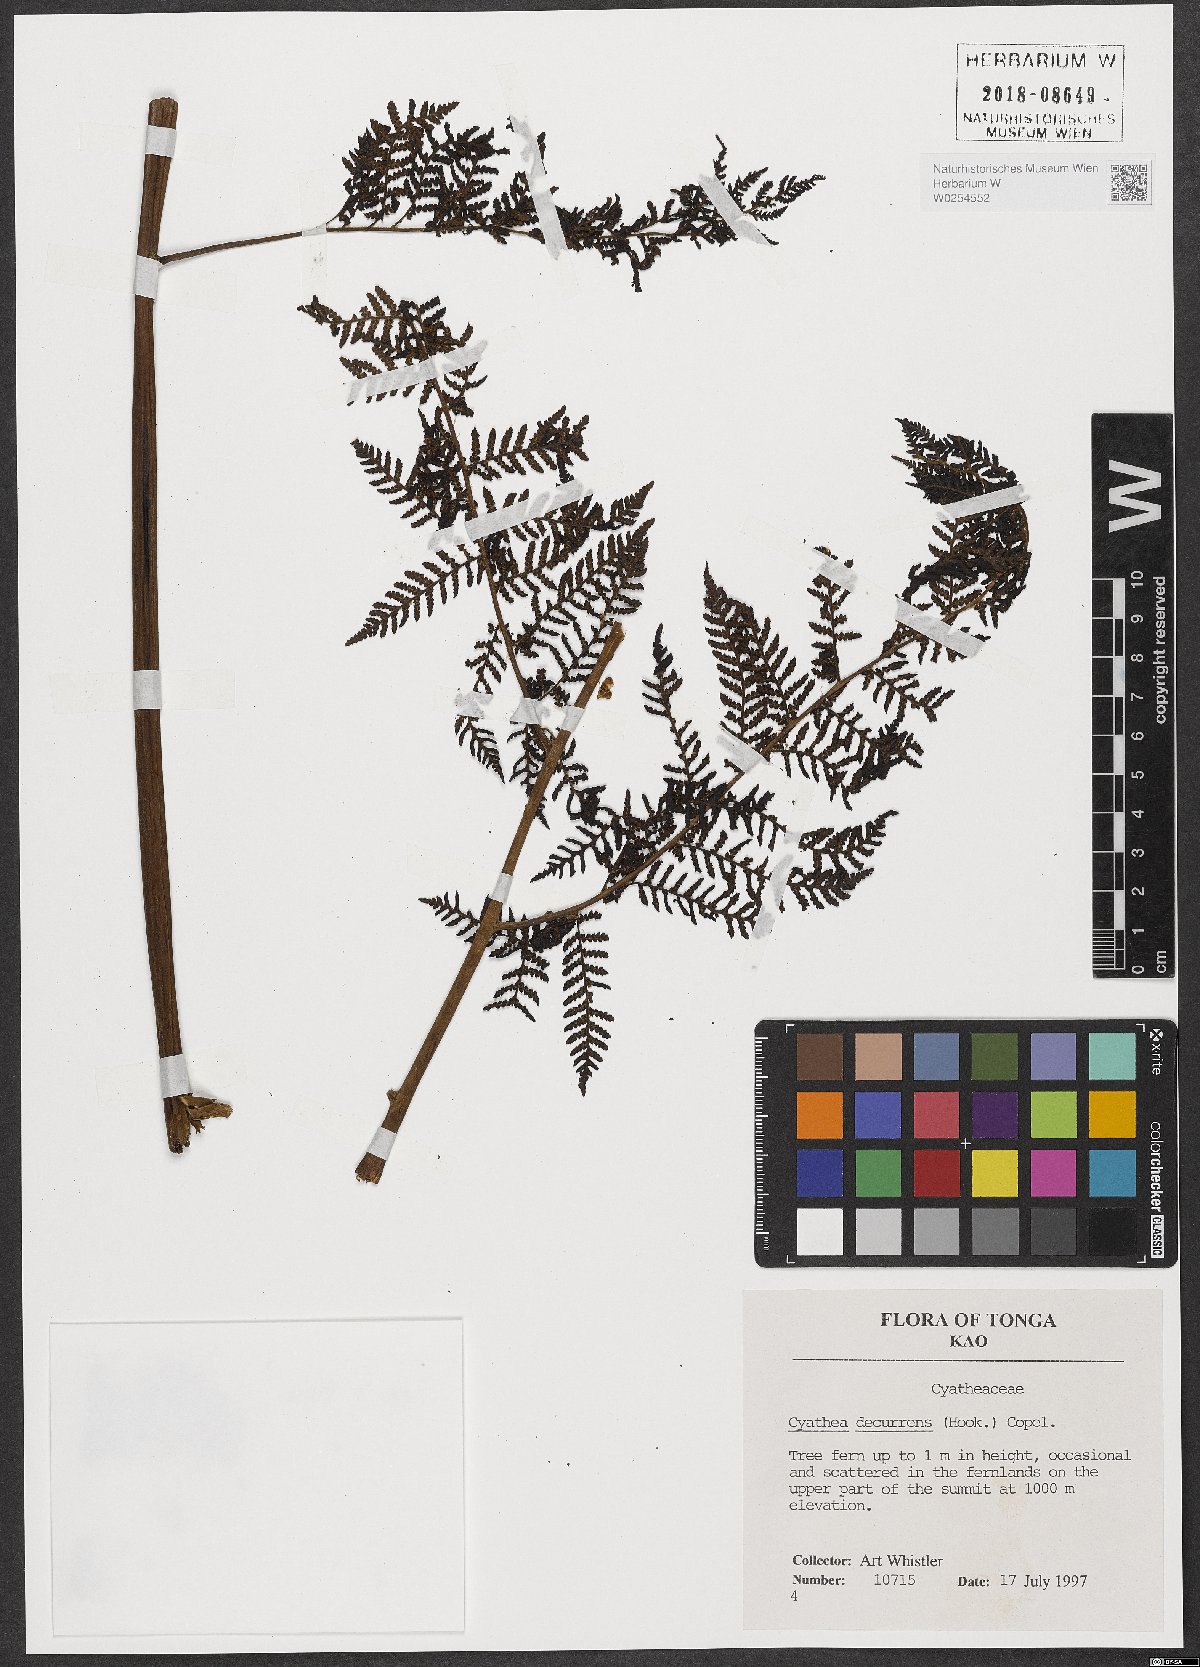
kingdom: Plantae
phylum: Tracheophyta
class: Polypodiopsida
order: Cyatheales
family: Cyatheaceae
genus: Cyathea
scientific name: Cyathea decurrens
